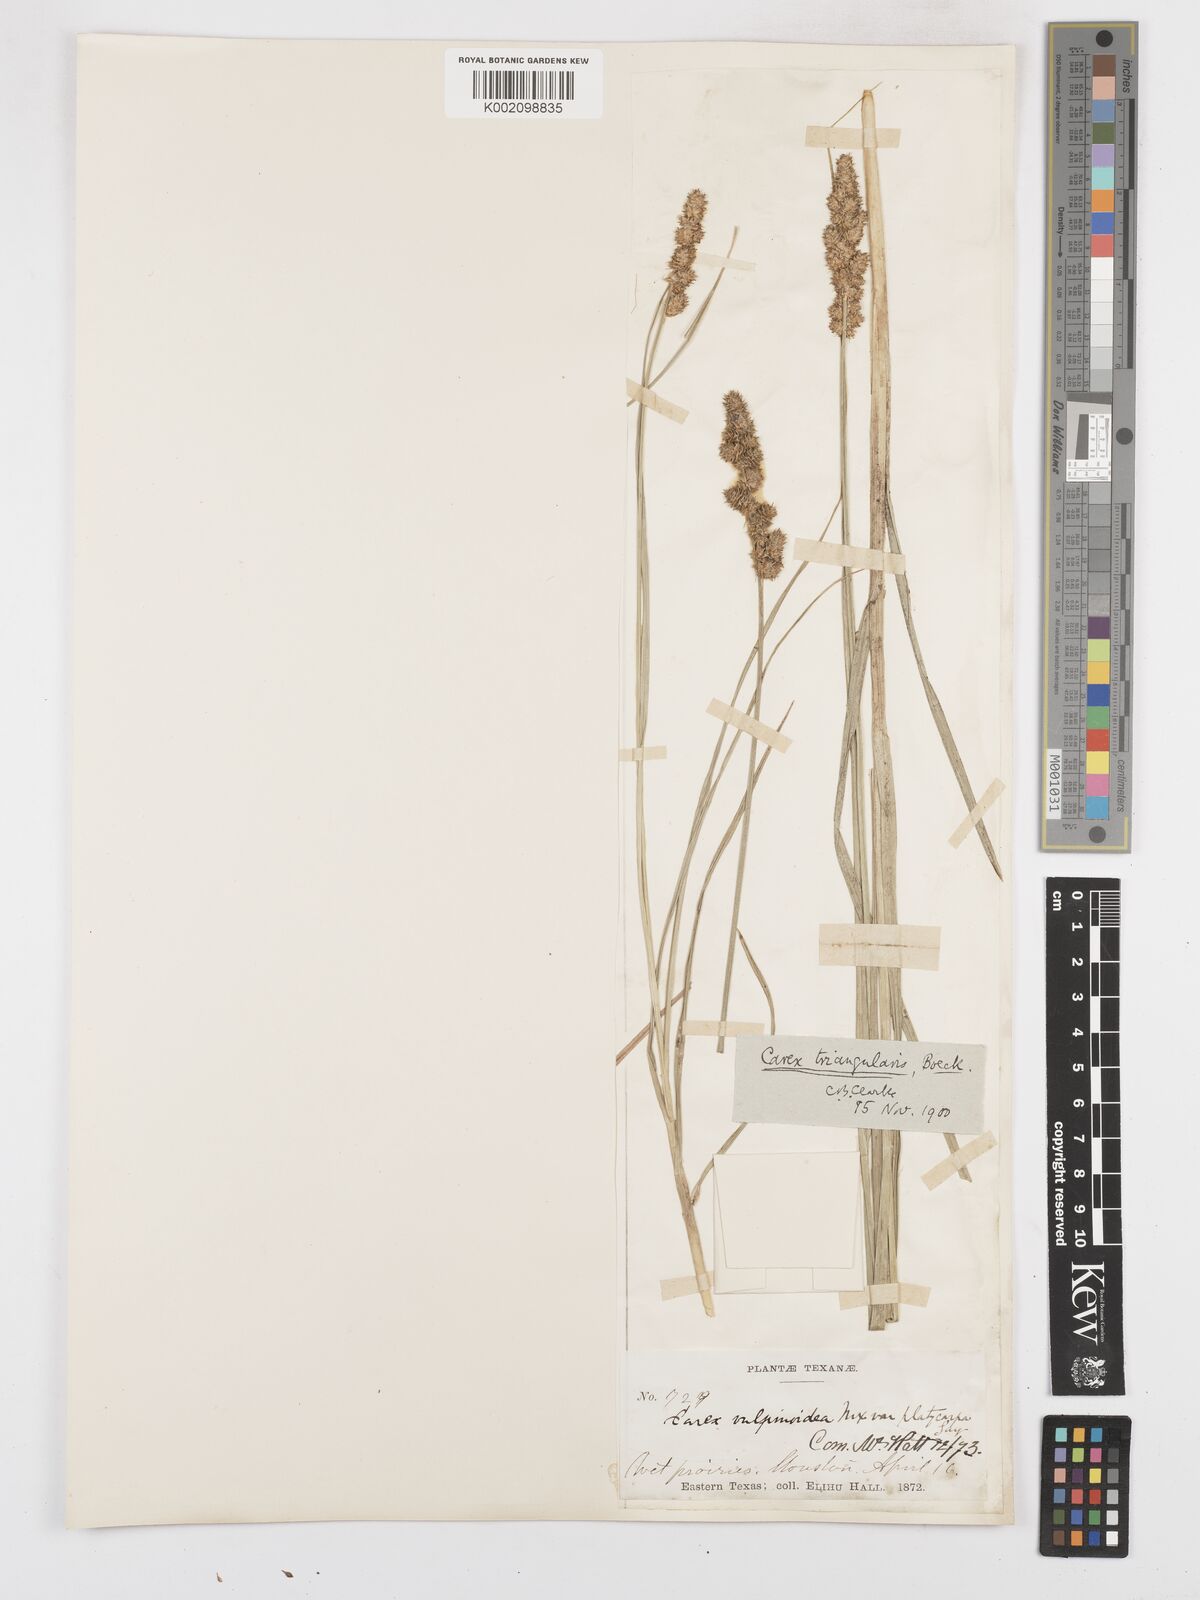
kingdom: Plantae
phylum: Tracheophyta
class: Liliopsida
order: Poales
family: Cyperaceae
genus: Carex
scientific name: Carex triangularis
